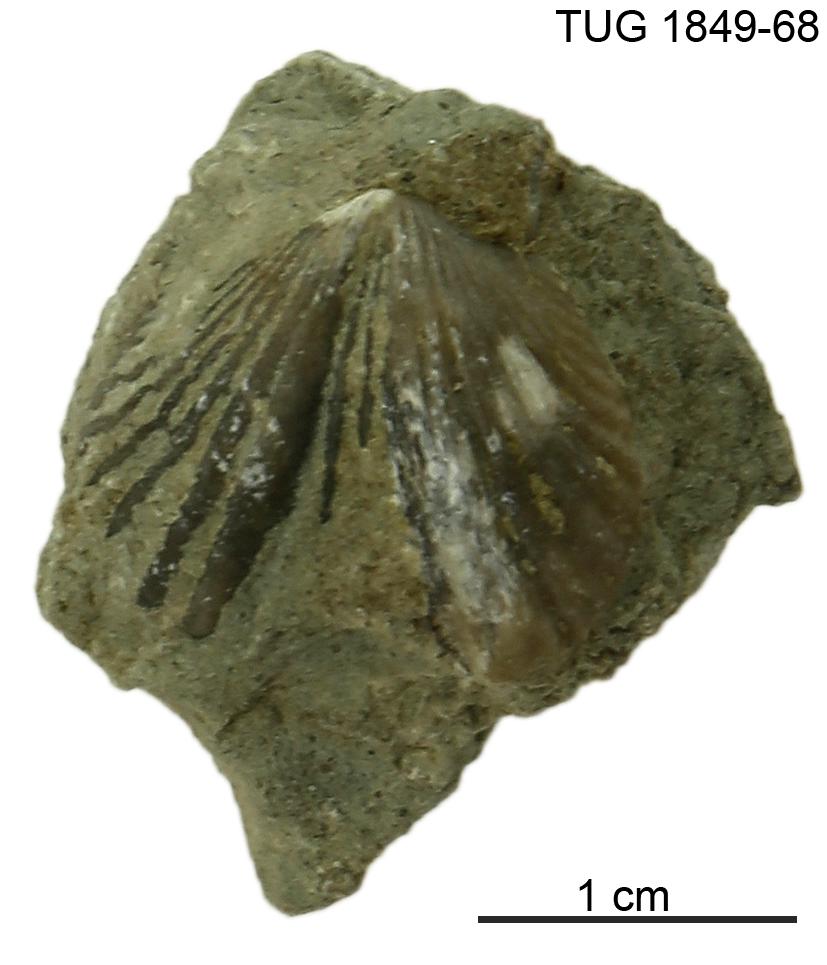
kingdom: Animalia
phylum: Brachiopoda
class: Rhynchonellata
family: Plectorthidae
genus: Platystrophia
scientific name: Platystrophia
